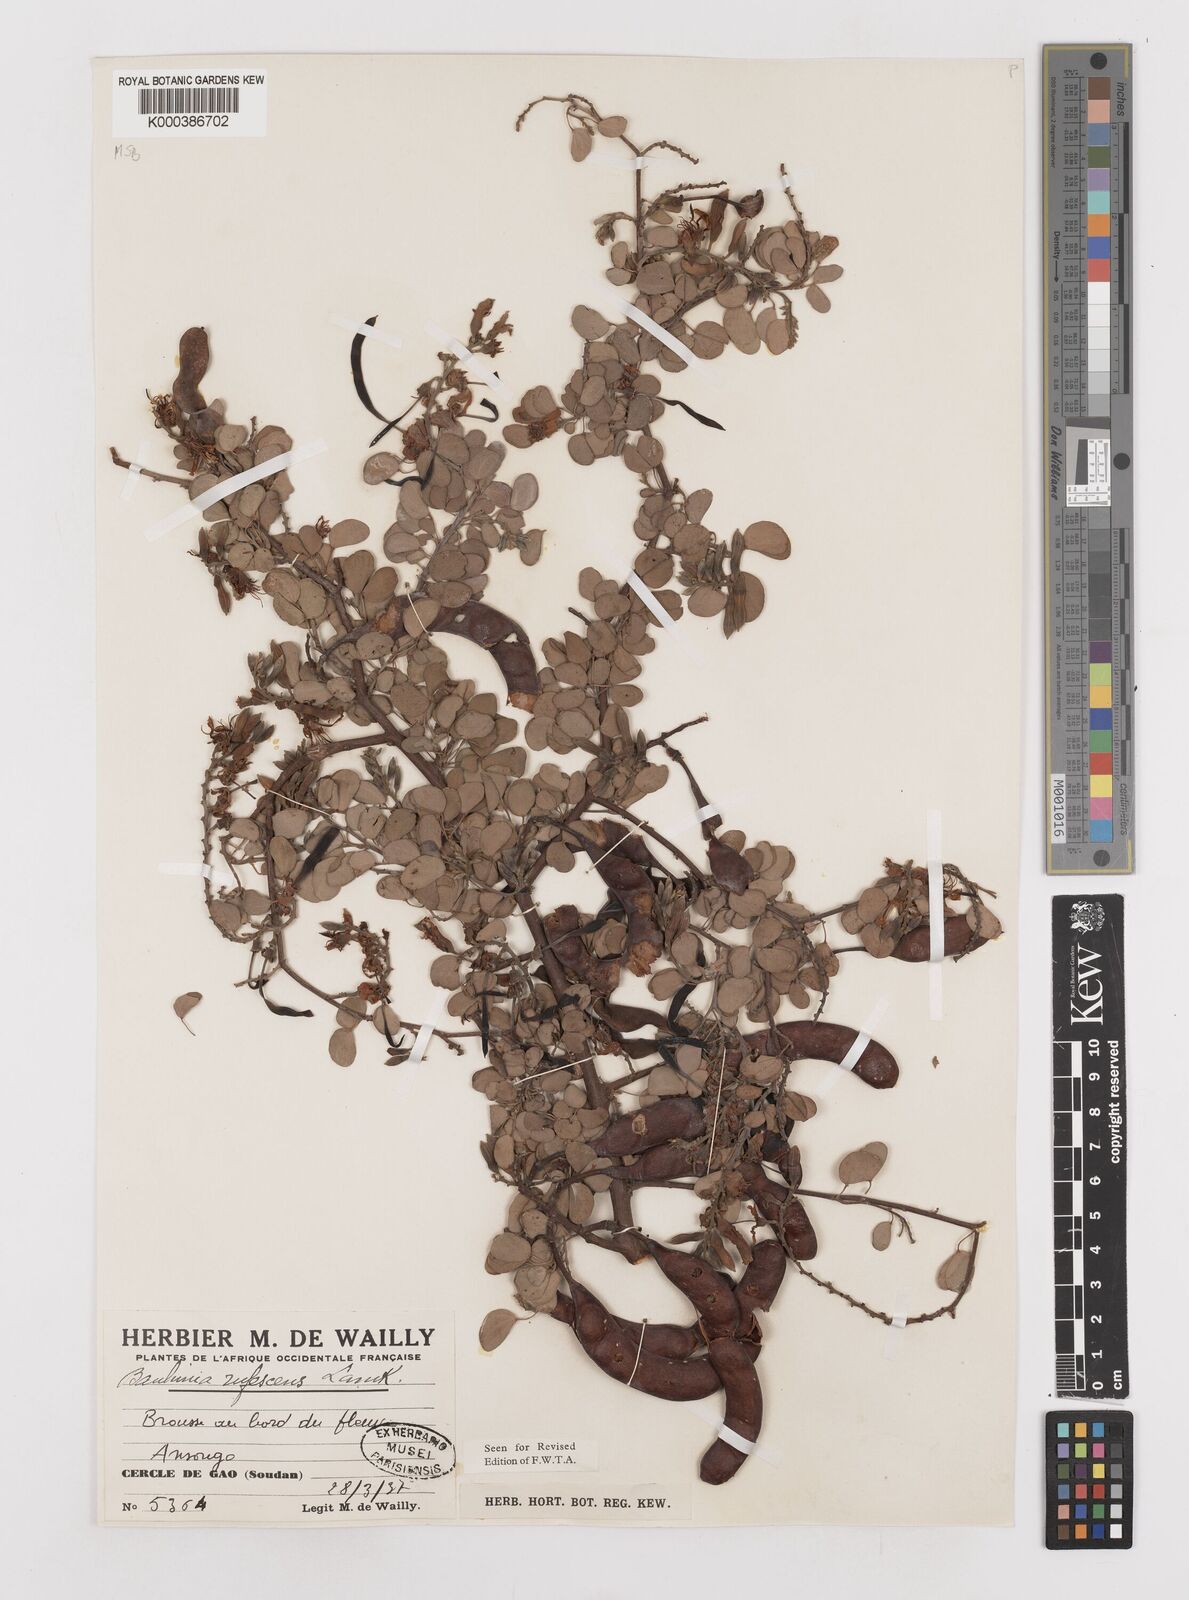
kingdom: Plantae
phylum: Tracheophyta
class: Magnoliopsida
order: Fabales
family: Fabaceae
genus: Bauhinia
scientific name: Bauhinia rufescens
